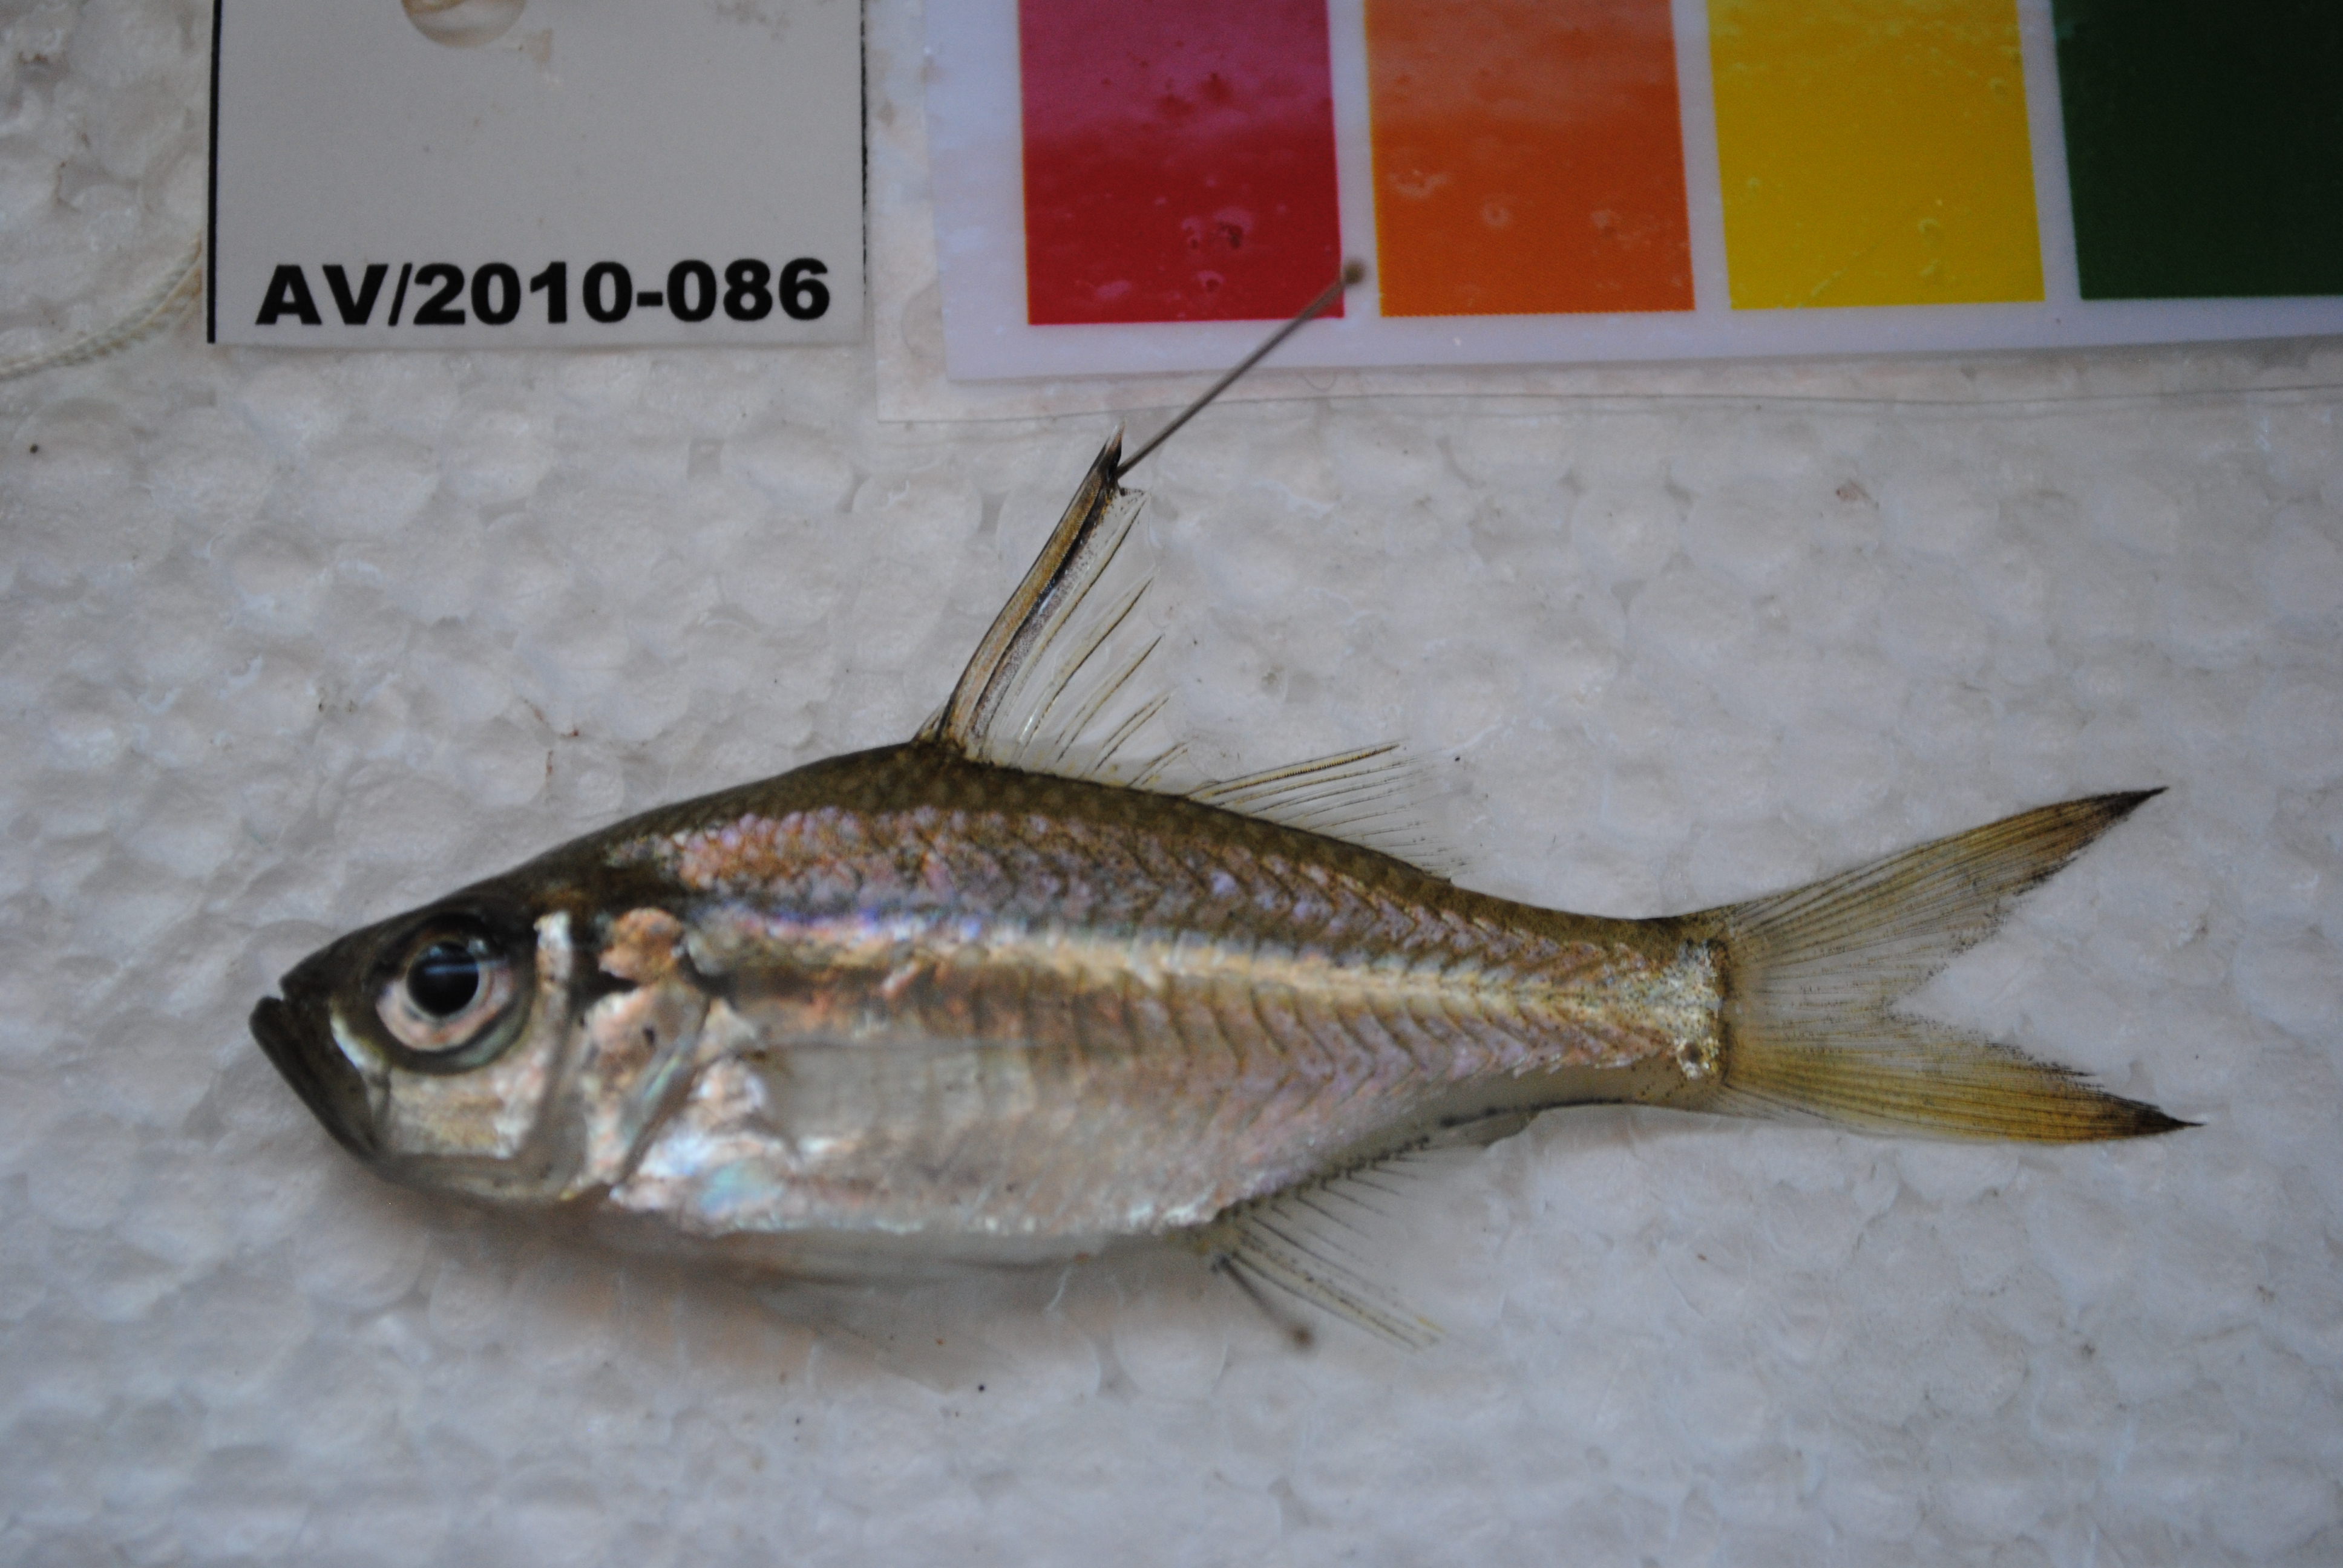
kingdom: Animalia
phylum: Chordata
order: Perciformes
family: Ambassidae
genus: Ambassis
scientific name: Ambassis ambassis
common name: Commerson's glassy perchlet
